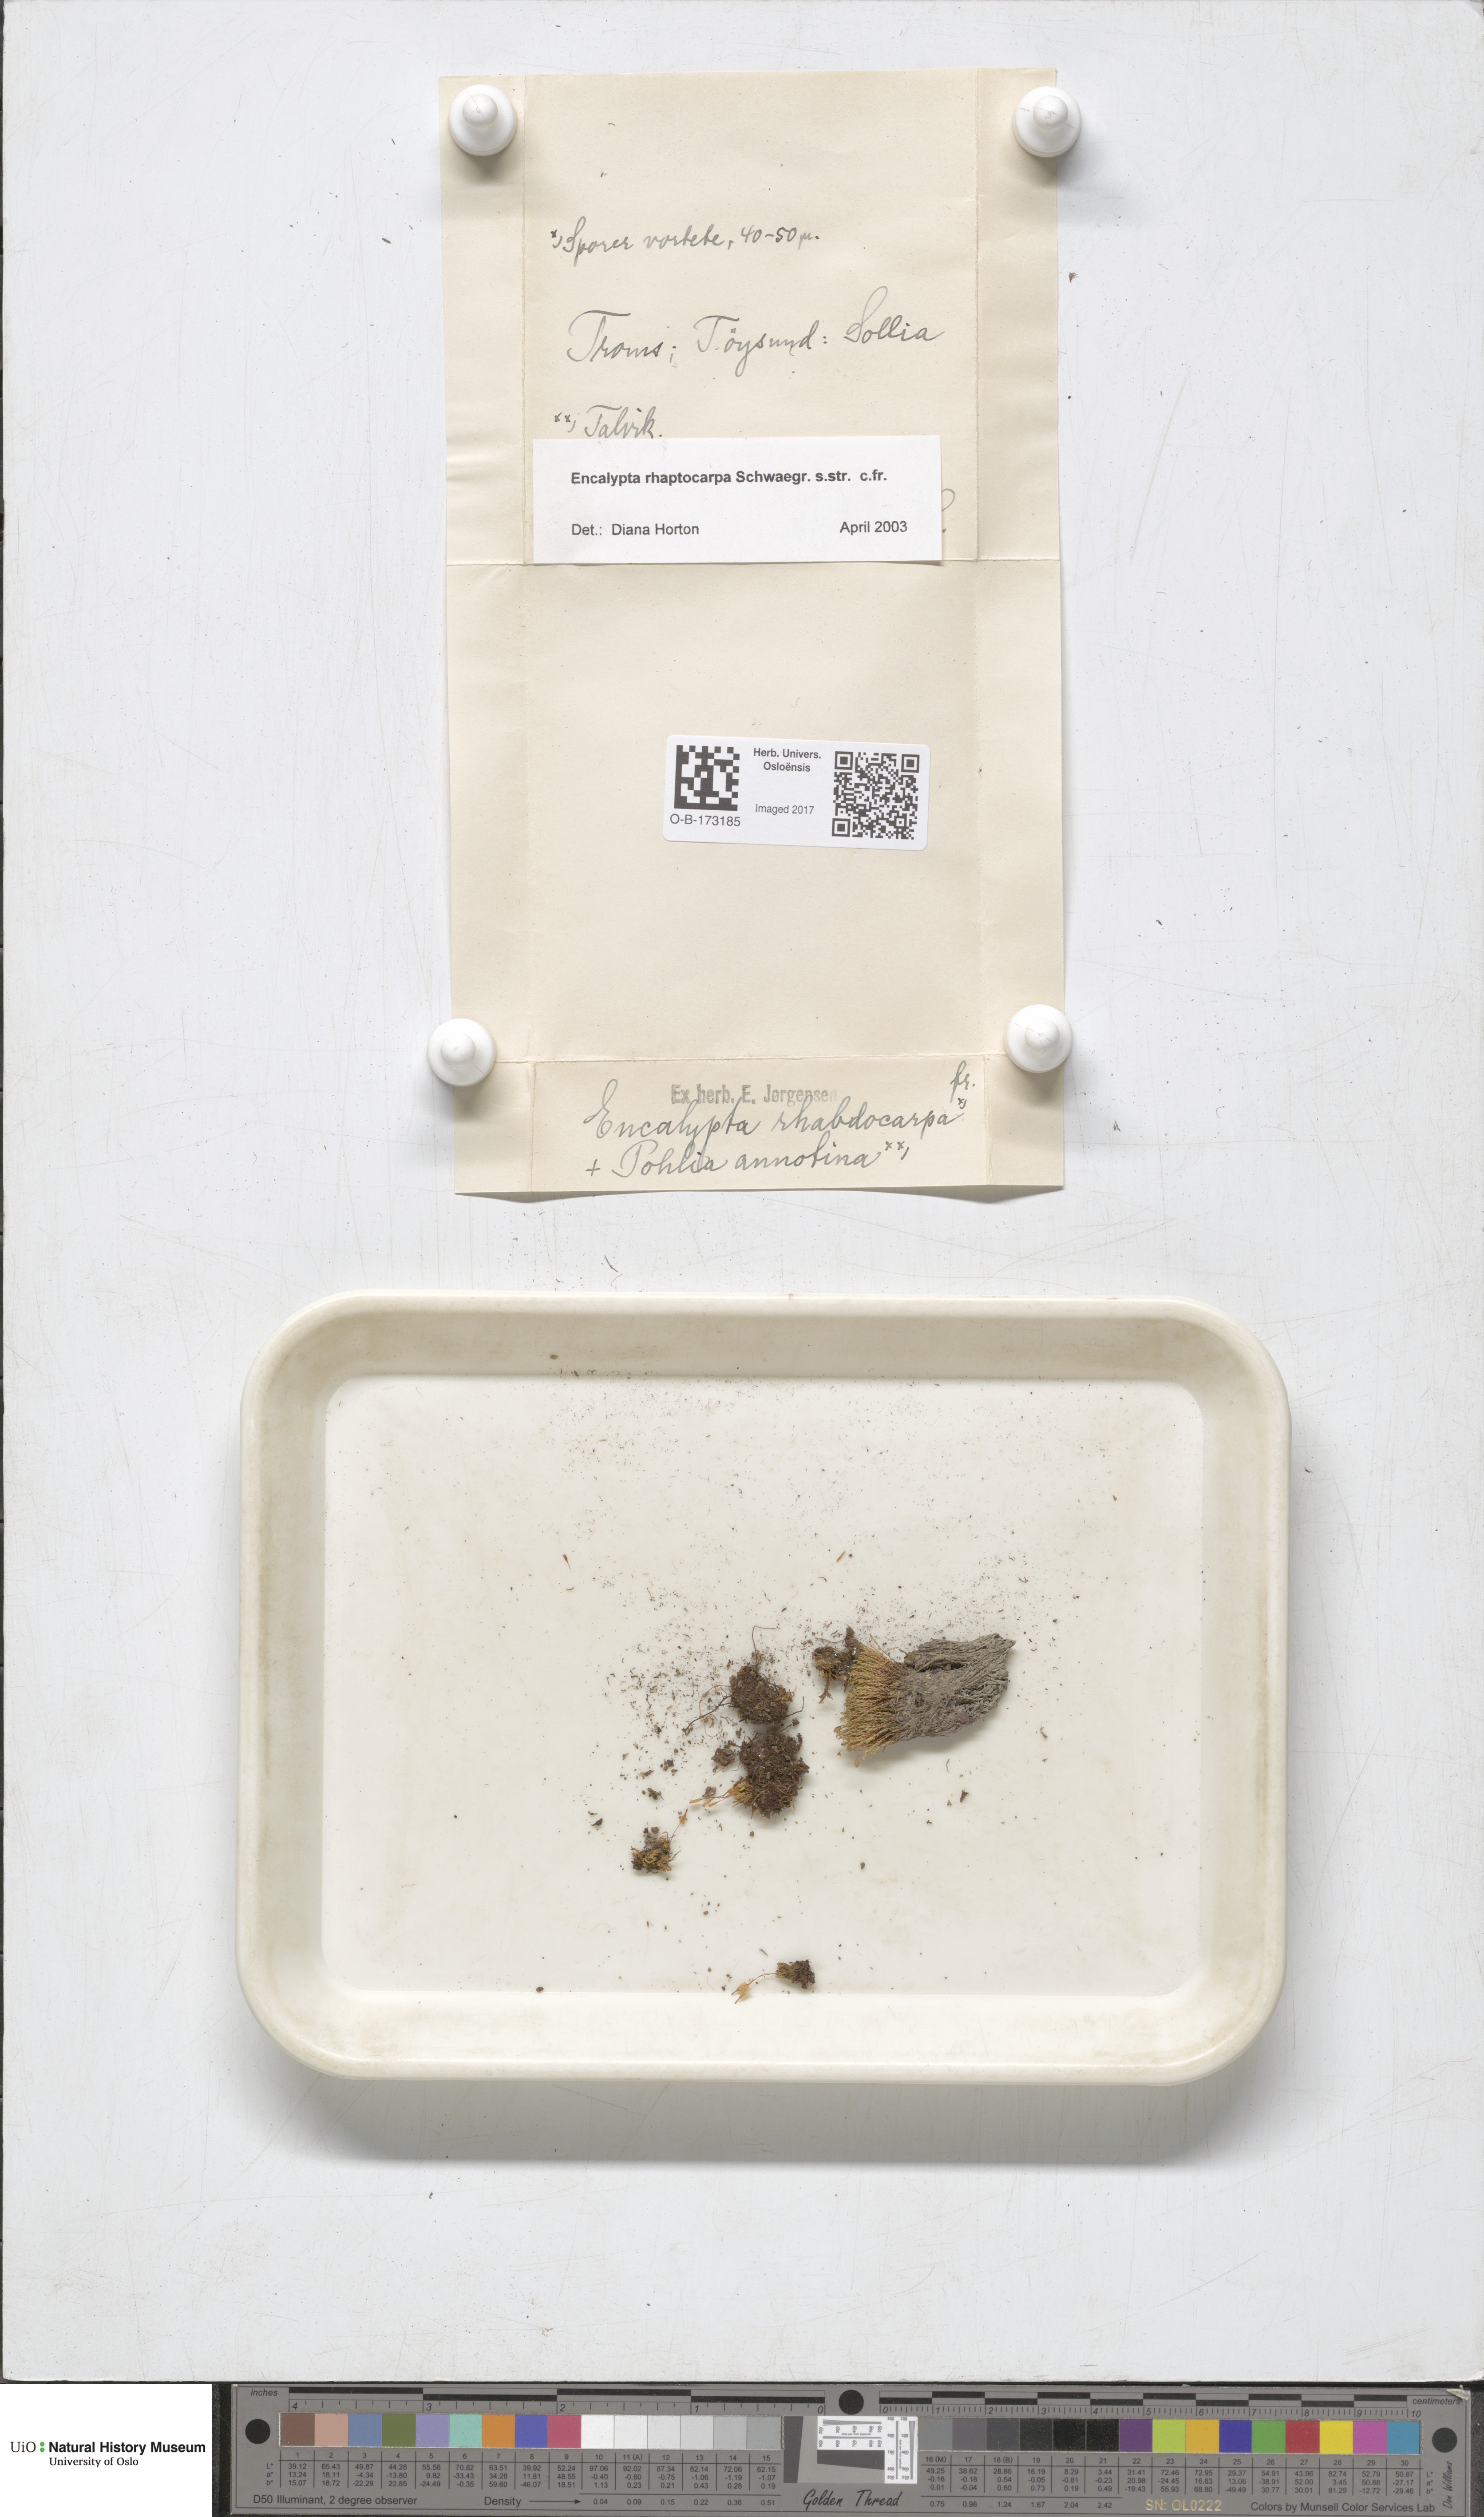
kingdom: Plantae
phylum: Bryophyta
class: Bryopsida
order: Encalyptales
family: Encalyptaceae
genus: Encalypta
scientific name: Encalypta rhaptocarpa
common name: Ribbed extinguisher moss
